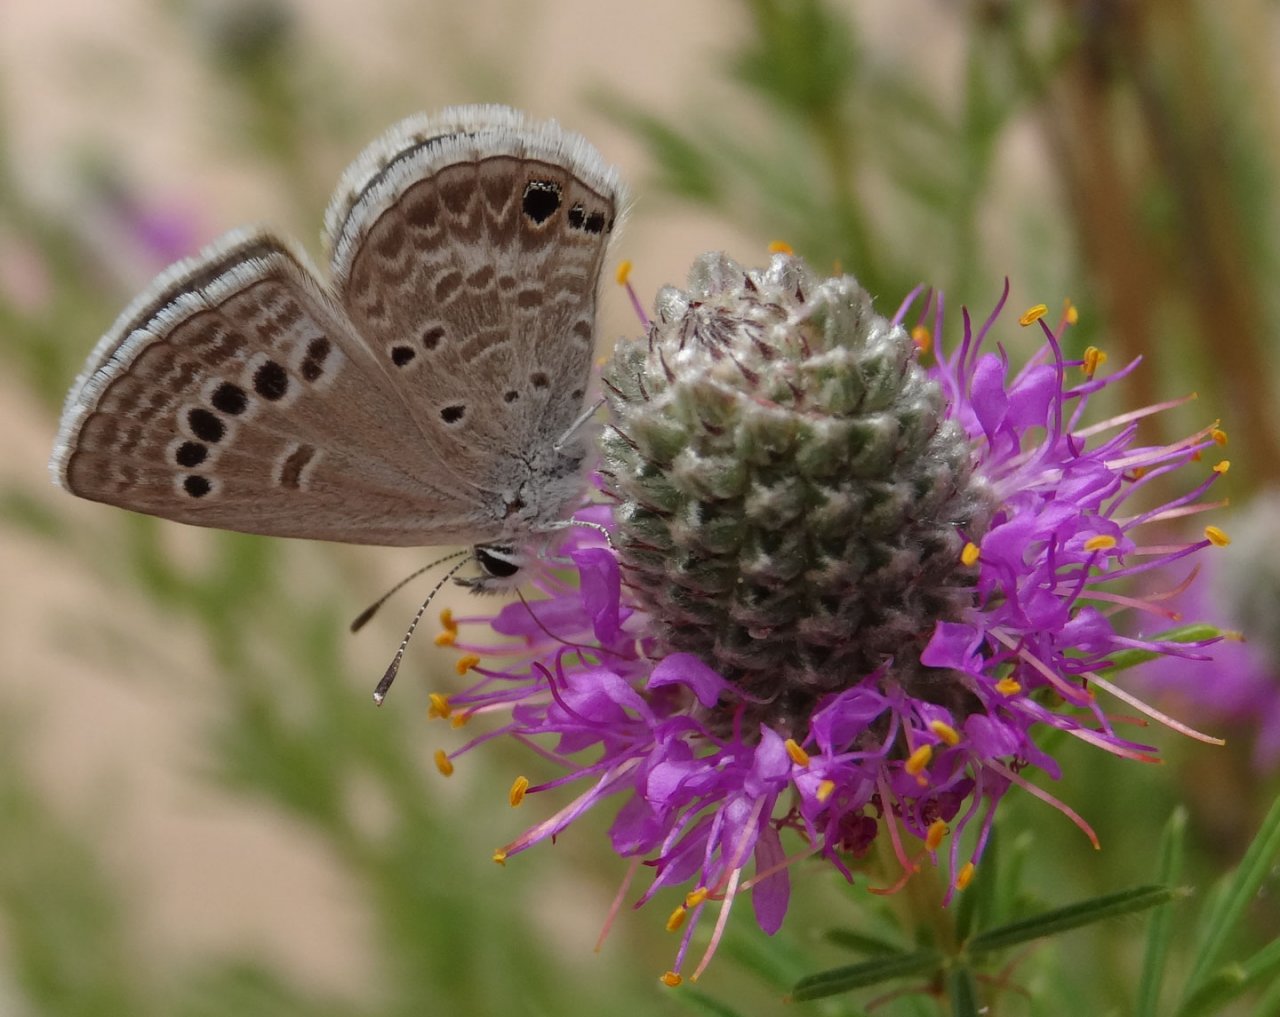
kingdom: Animalia
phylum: Arthropoda
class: Insecta
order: Lepidoptera
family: Lycaenidae
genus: Echinargus
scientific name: Echinargus isola
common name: Reakirt's Blue
